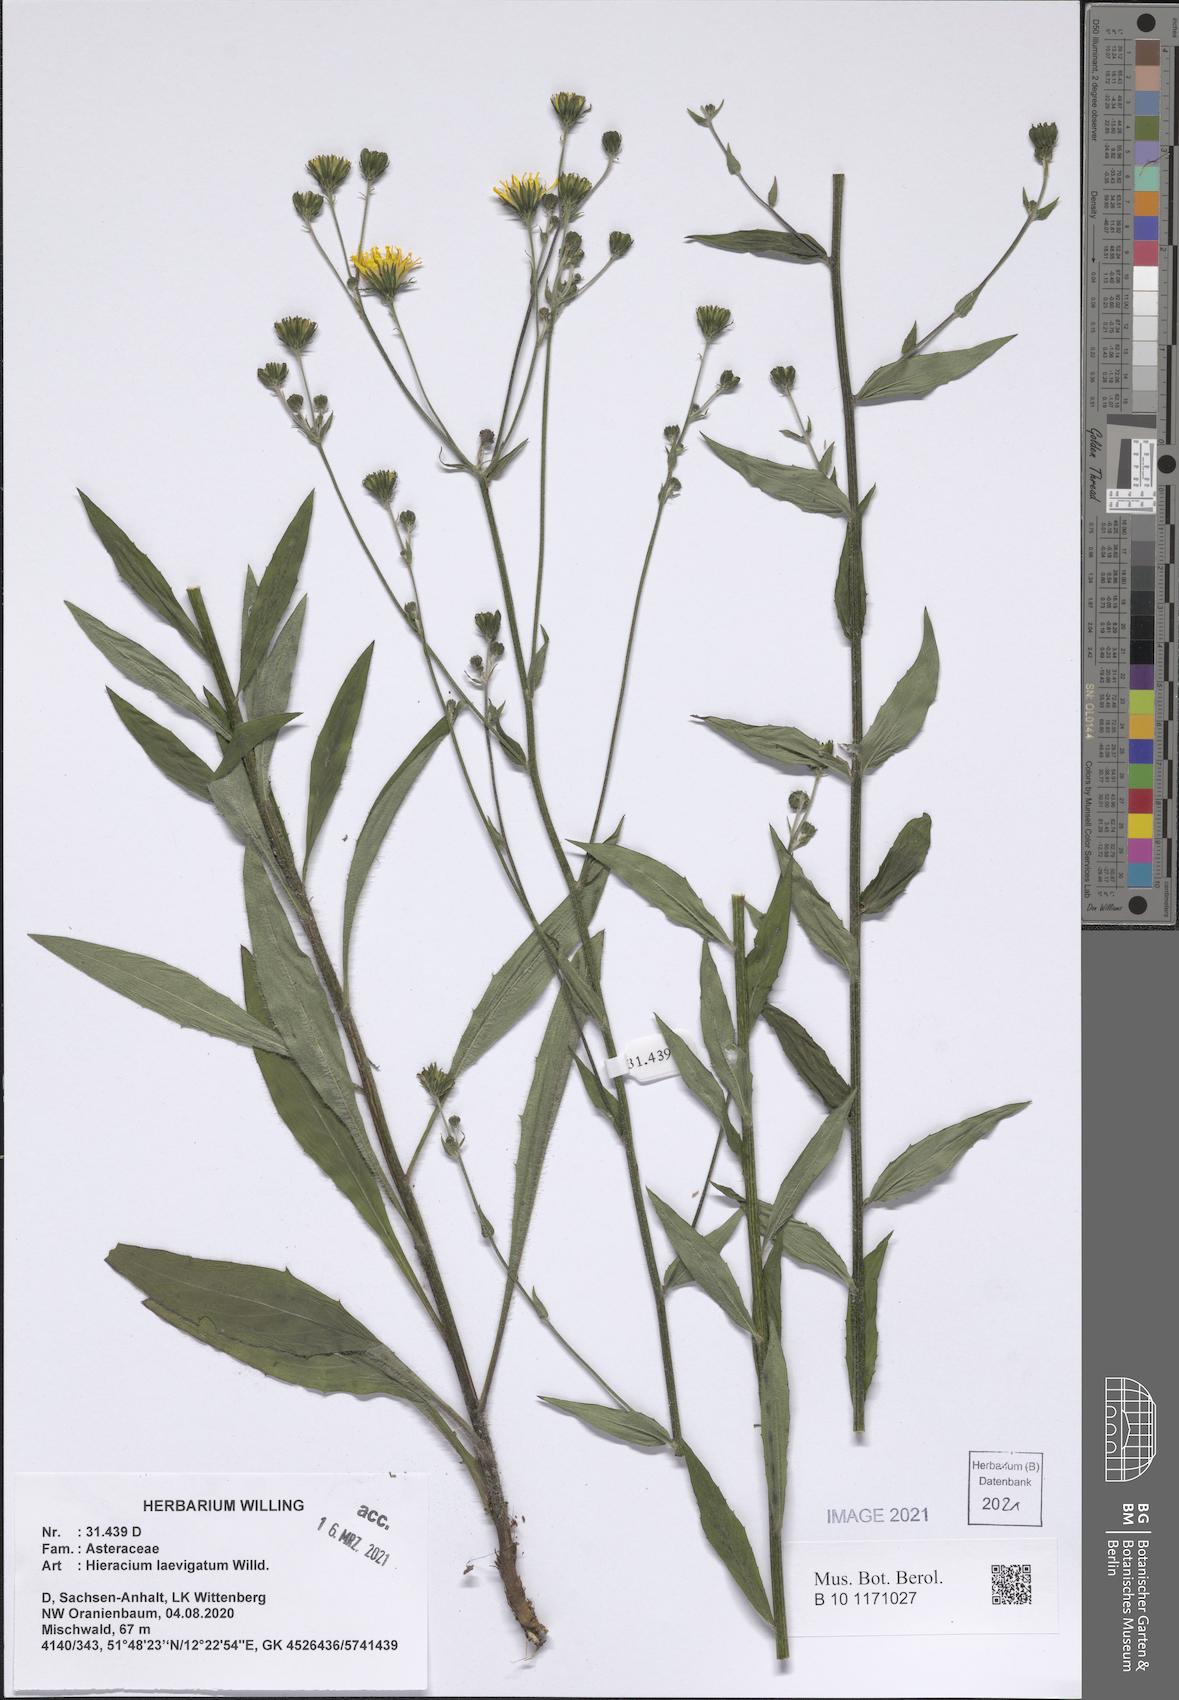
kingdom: Plantae
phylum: Tracheophyta
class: Magnoliopsida
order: Asterales
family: Asteraceae
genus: Hieracium
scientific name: Hieracium laevigatum
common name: Smooth hawkweed
